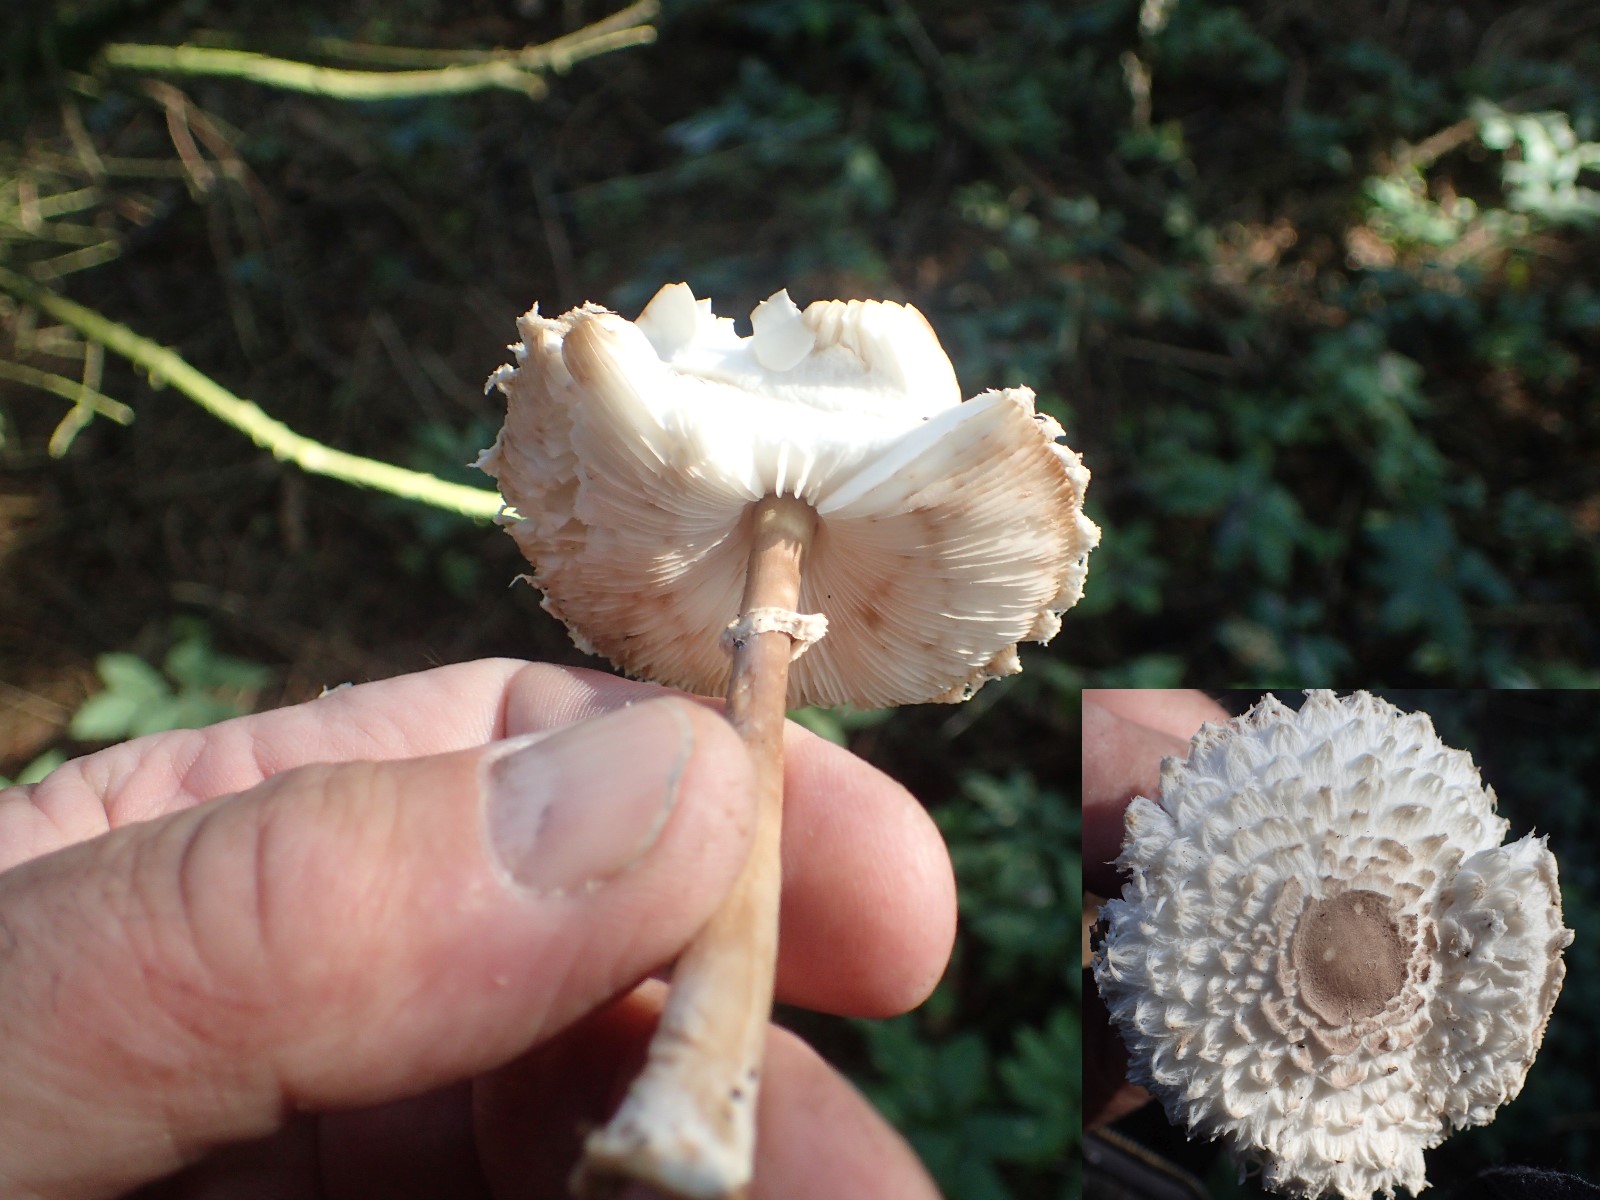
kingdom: Fungi
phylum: Basidiomycota
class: Agaricomycetes
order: Agaricales
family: Agaricaceae
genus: Leucoagaricus
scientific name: Leucoagaricus nympharum
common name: gran-silkehat
